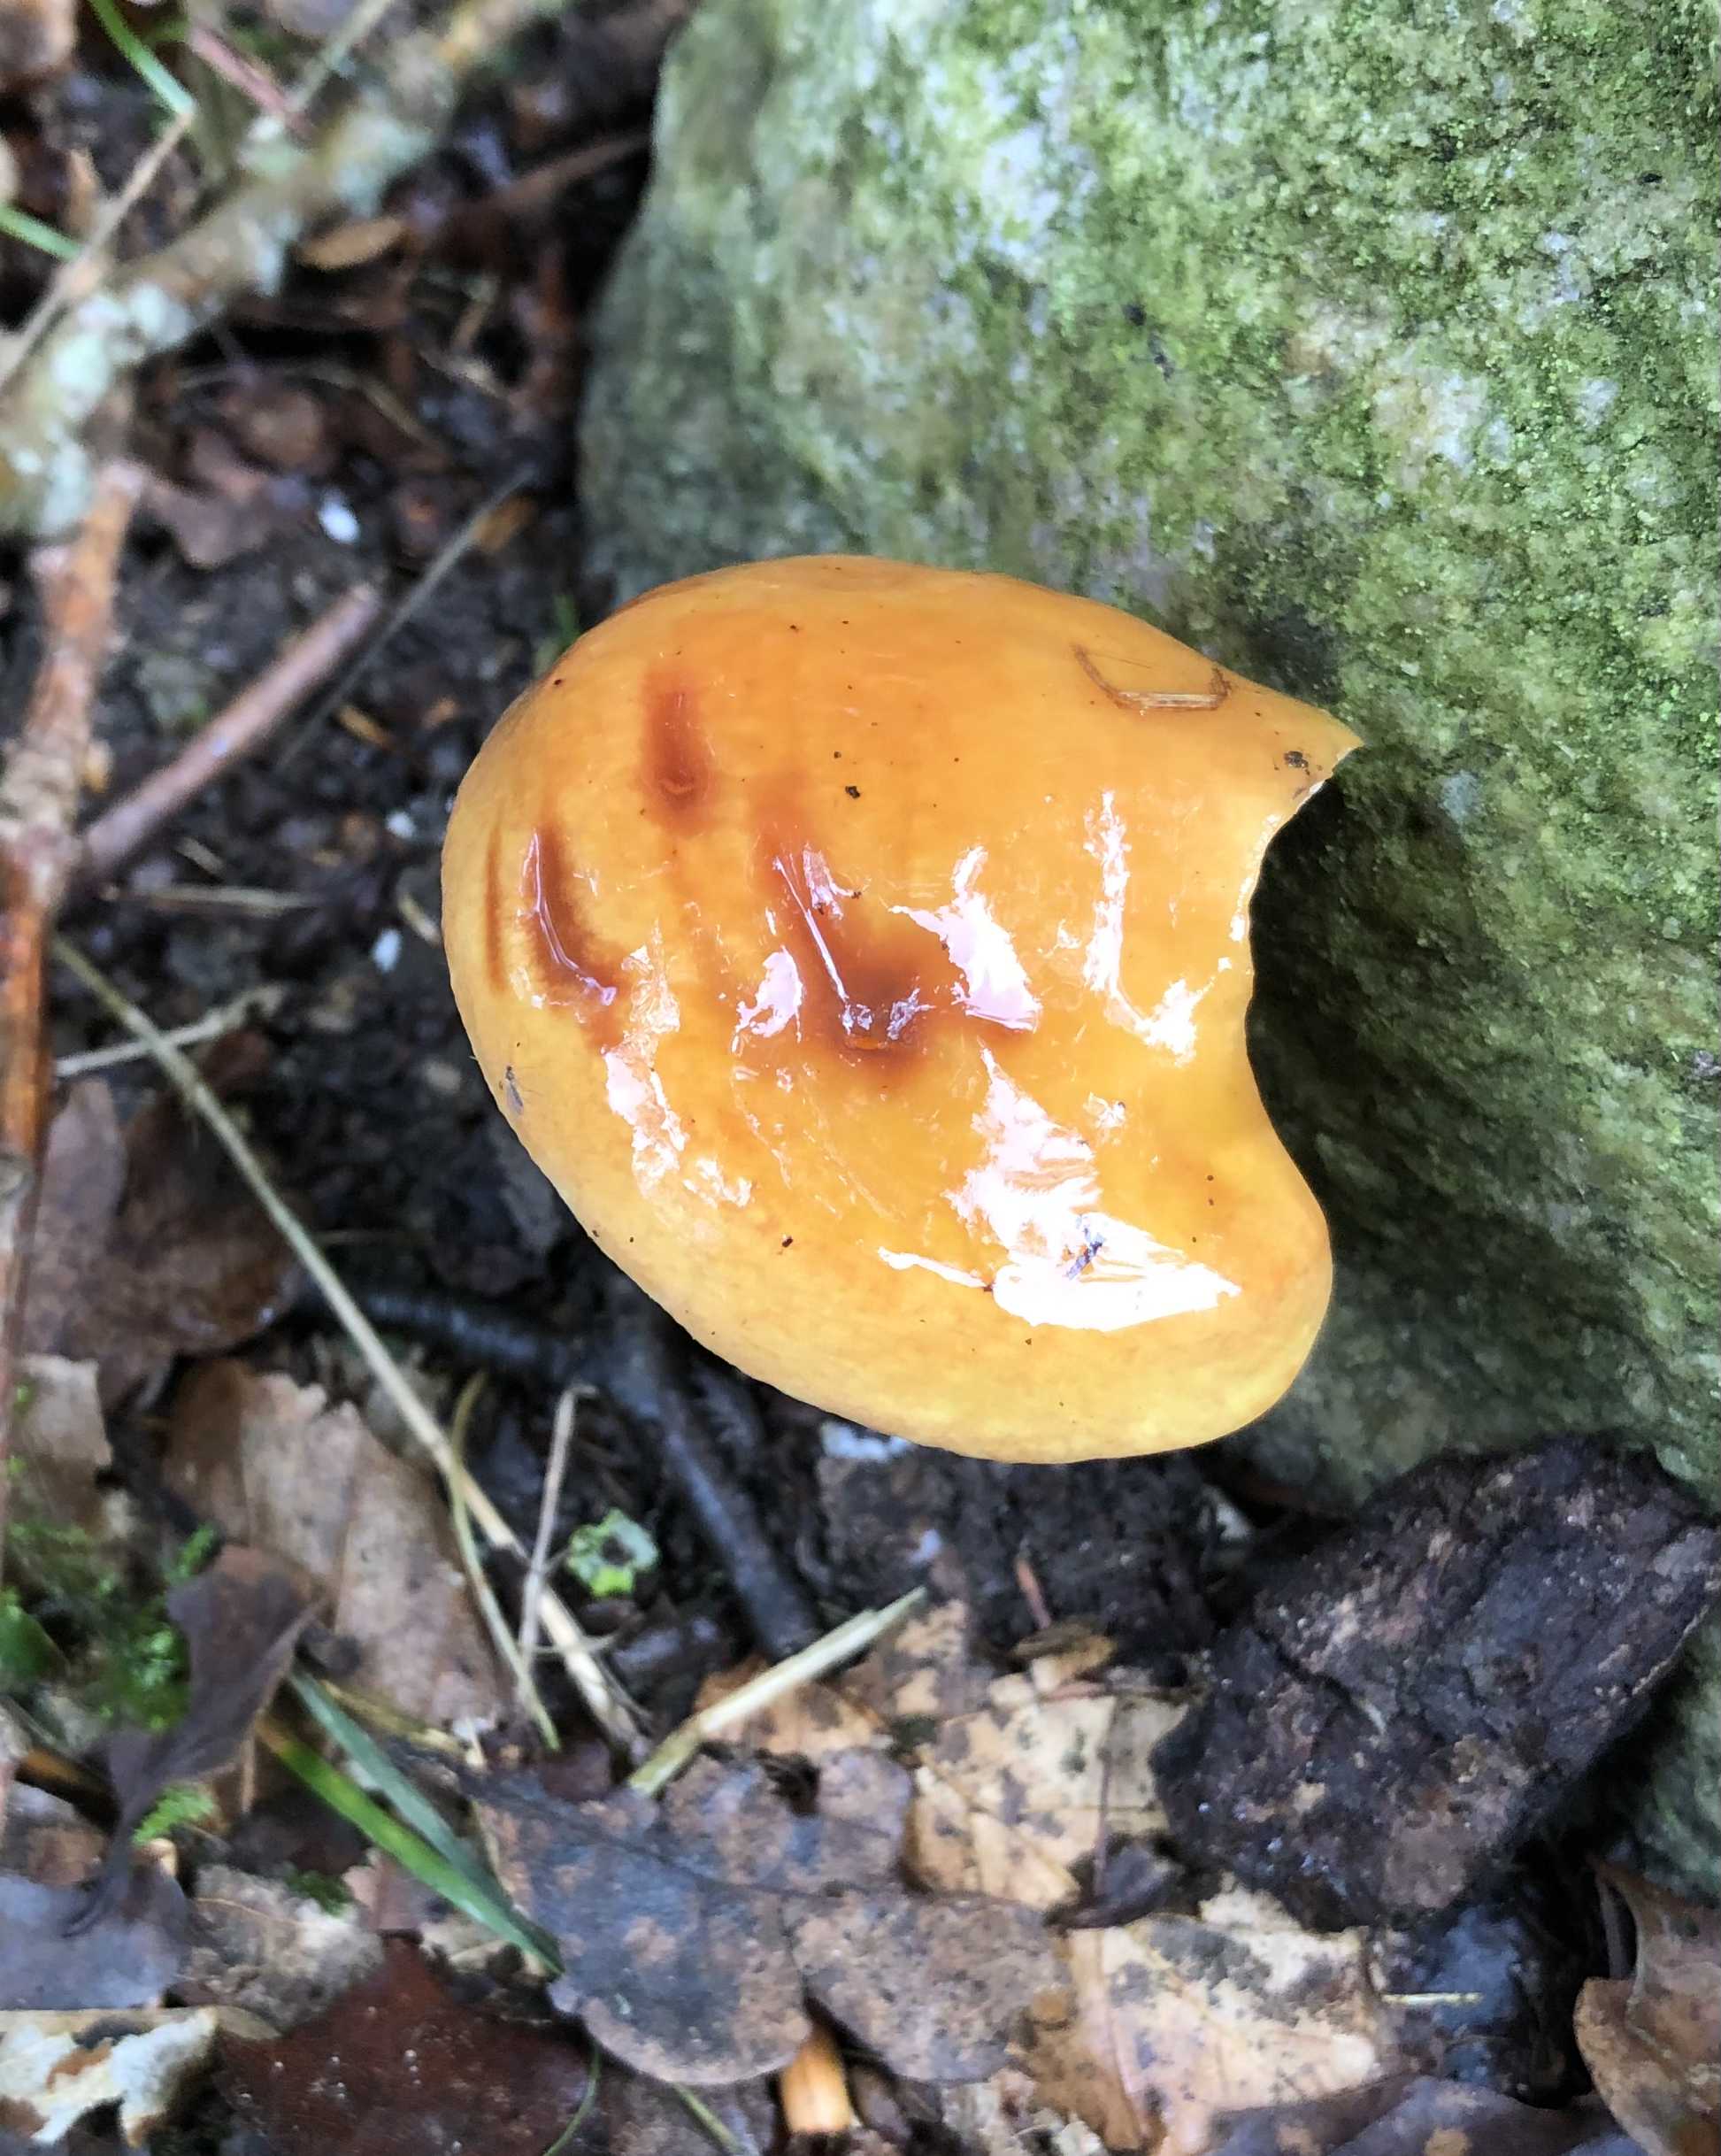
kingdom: Fungi
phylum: Basidiomycota
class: Agaricomycetes
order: Boletales
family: Suillaceae
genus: Suillus
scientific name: Suillus grevillei
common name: lærke-slimrørhat
